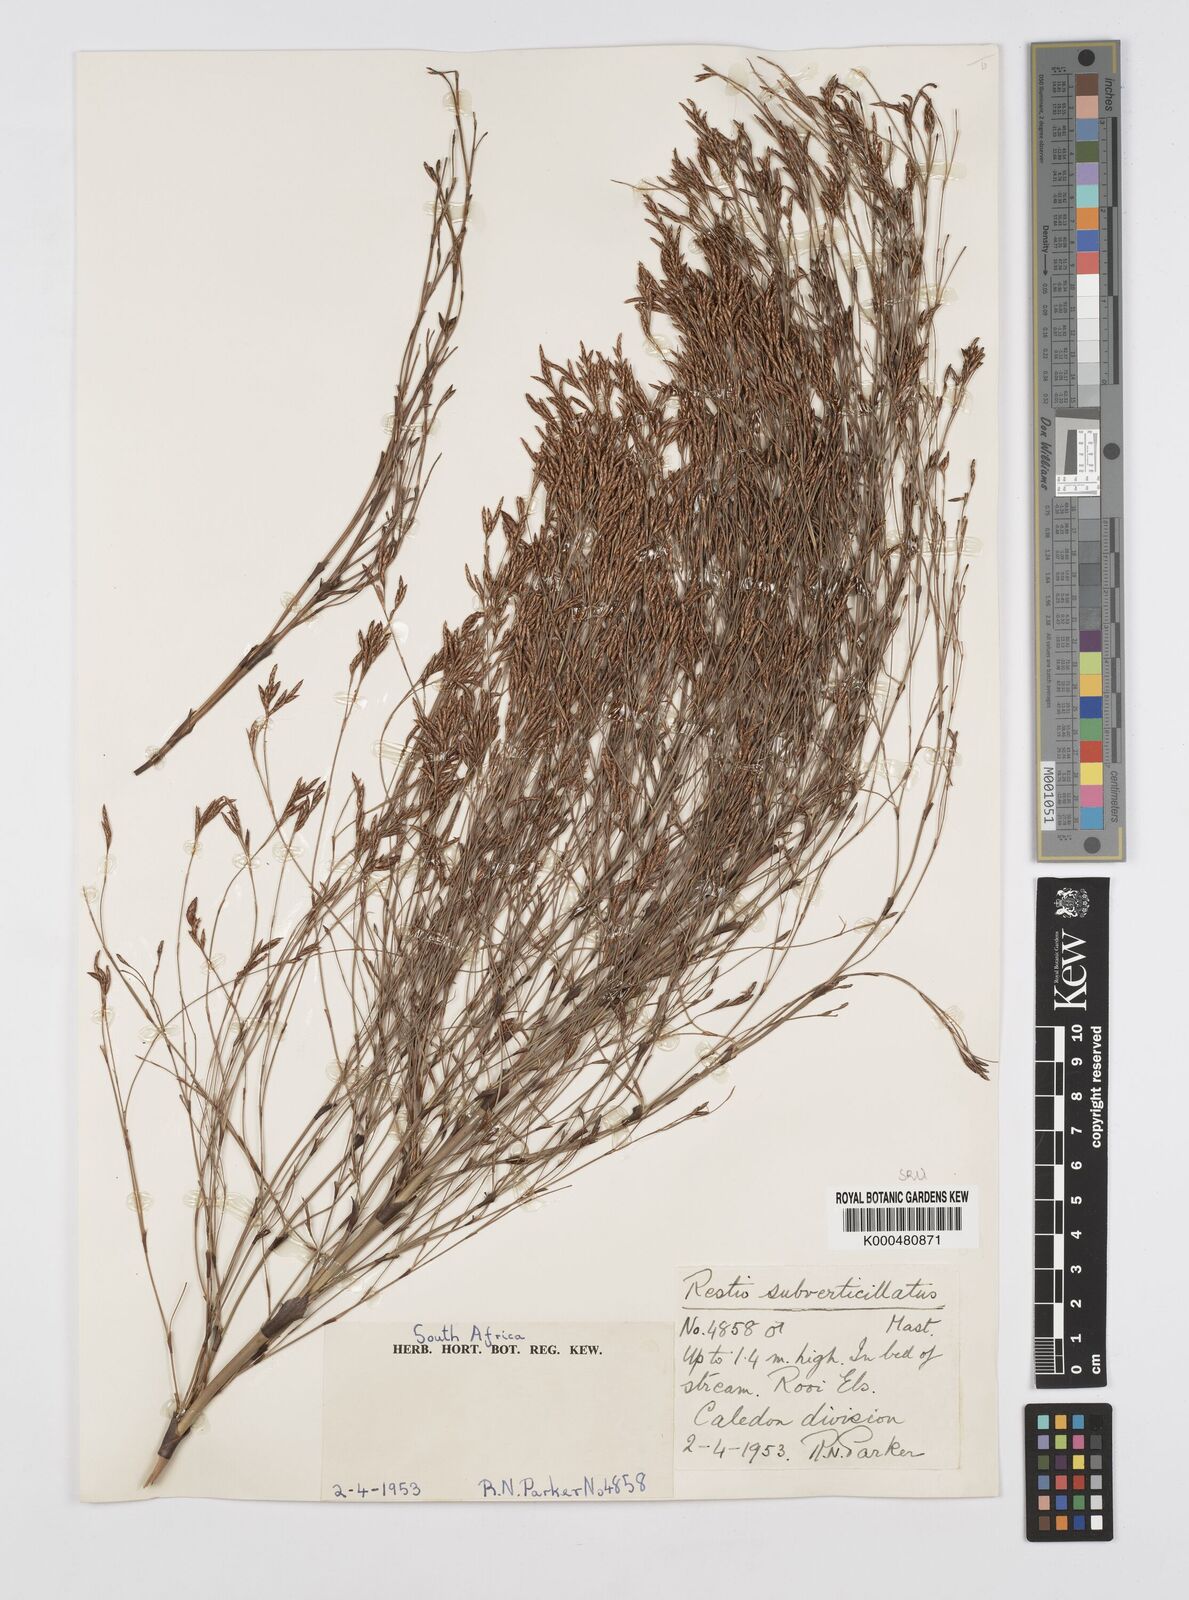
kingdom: Plantae
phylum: Tracheophyta
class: Liliopsida
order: Poales
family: Restionaceae
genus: Restio
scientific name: Restio subverticillatus
